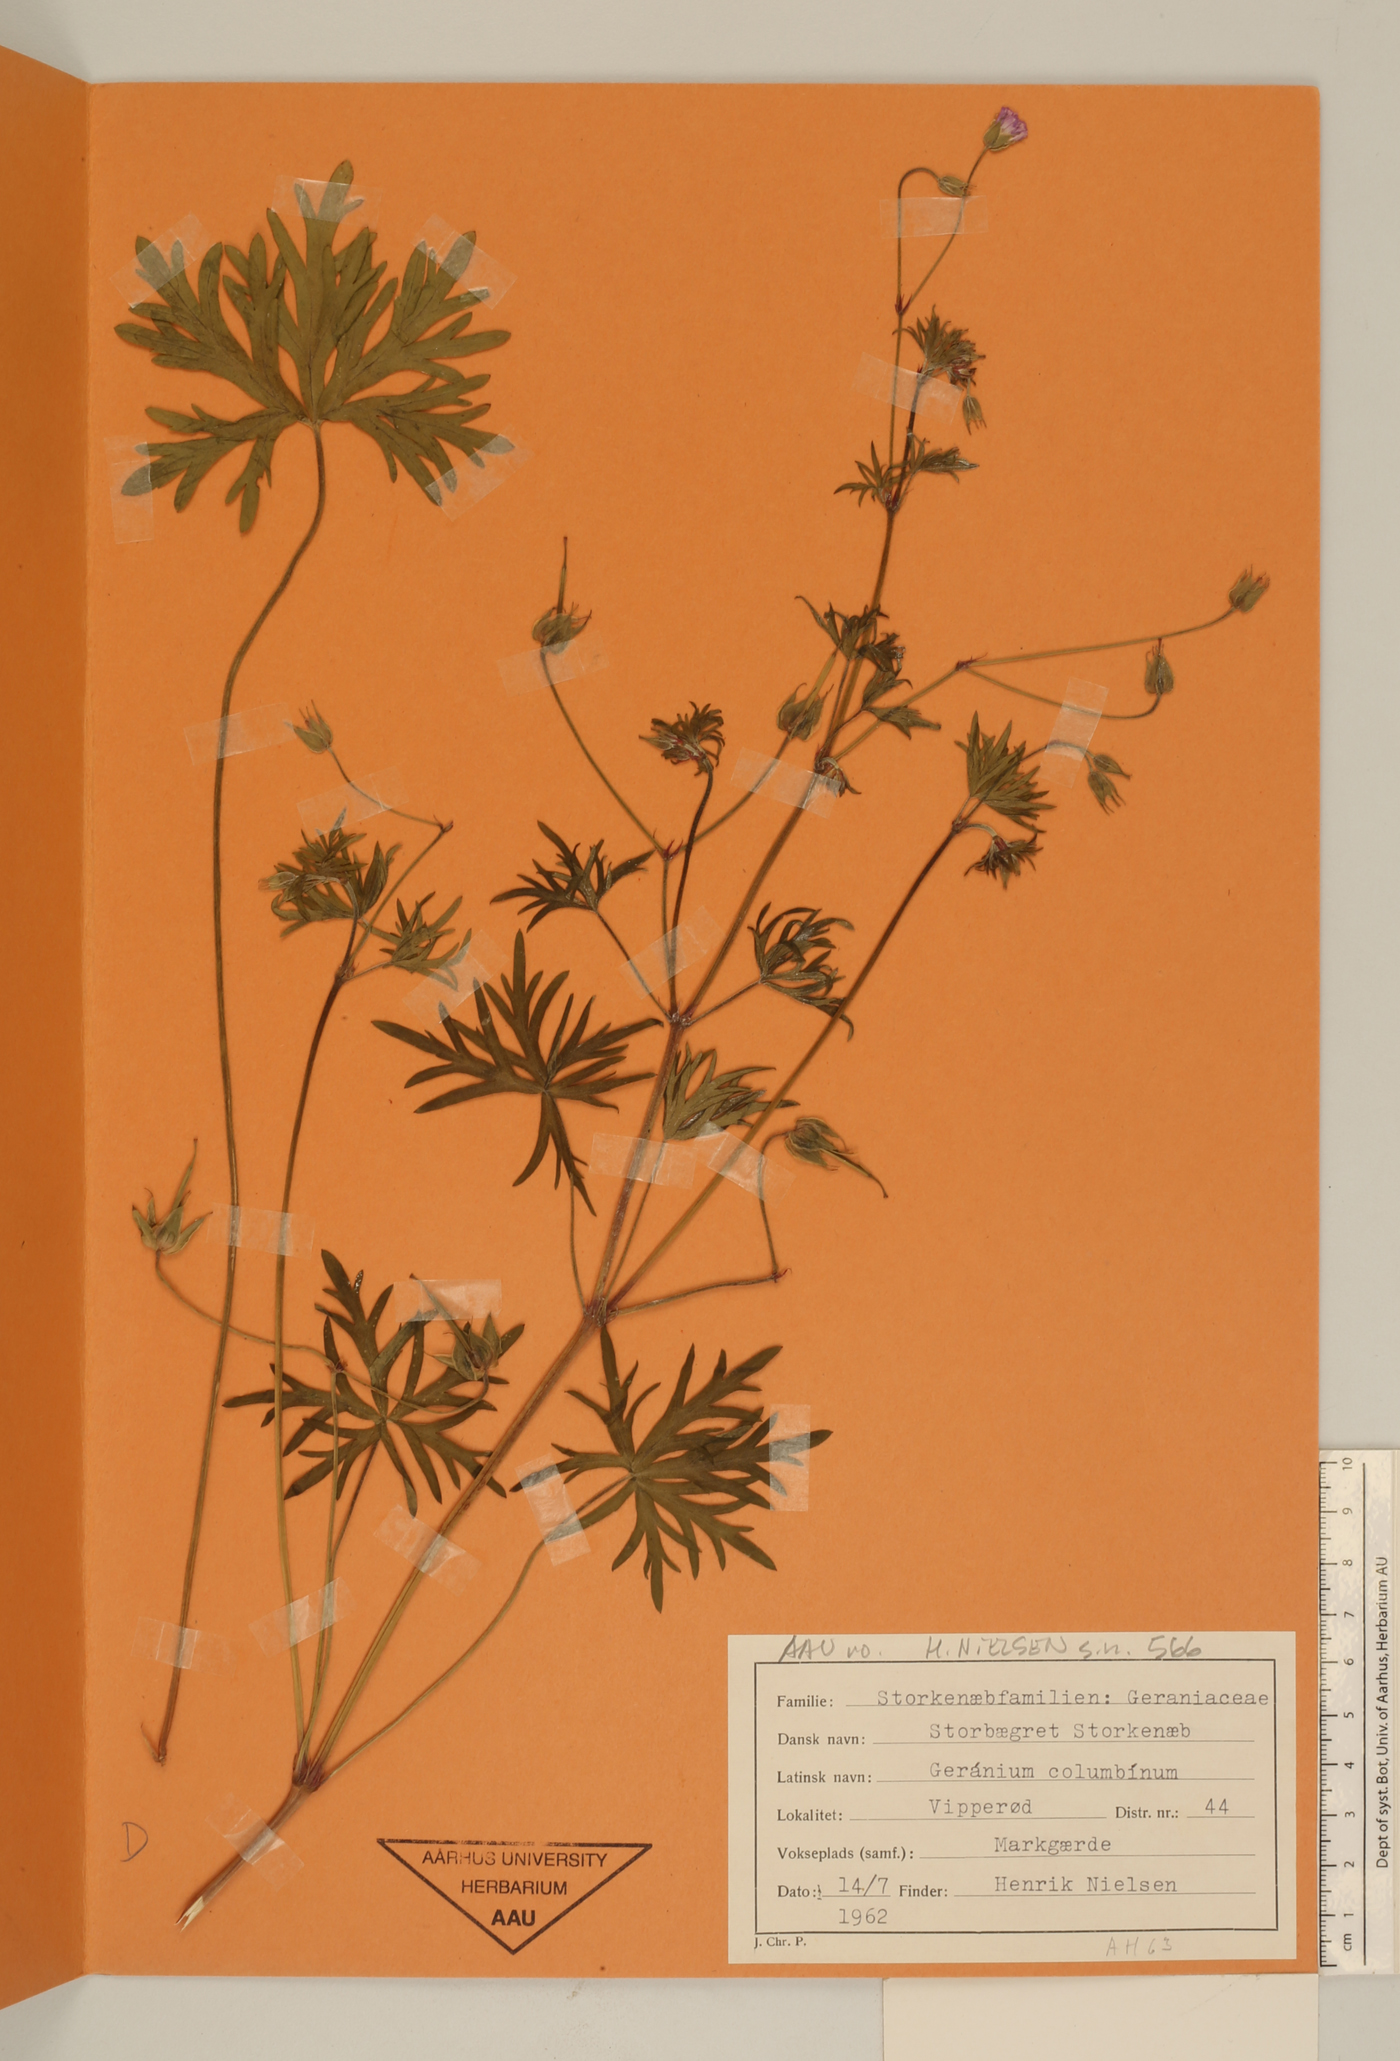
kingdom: Plantae
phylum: Tracheophyta
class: Magnoliopsida
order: Geraniales
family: Geraniaceae
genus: Geranium
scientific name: Geranium columbinum
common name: Long-stalked crane's-bill
